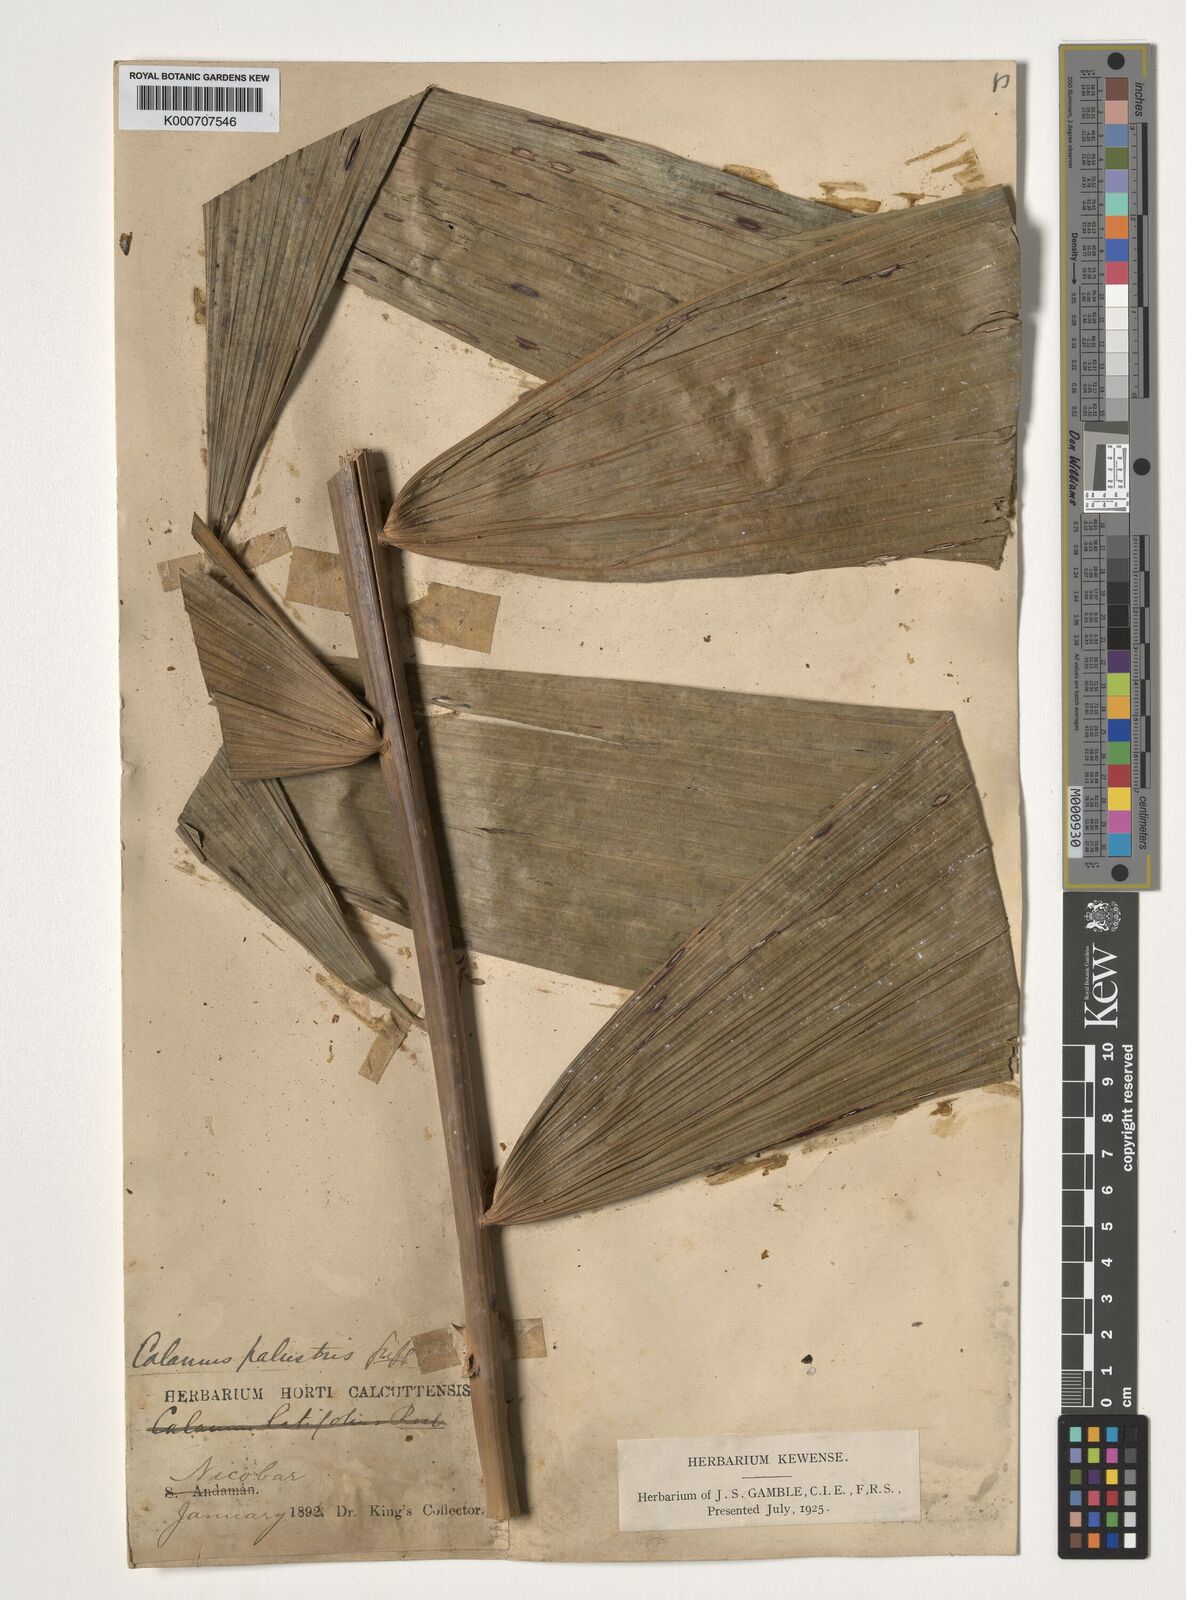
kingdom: Plantae
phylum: Tracheophyta
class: Liliopsida
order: Arecales
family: Arecaceae
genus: Calamus
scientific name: Calamus latifolius
